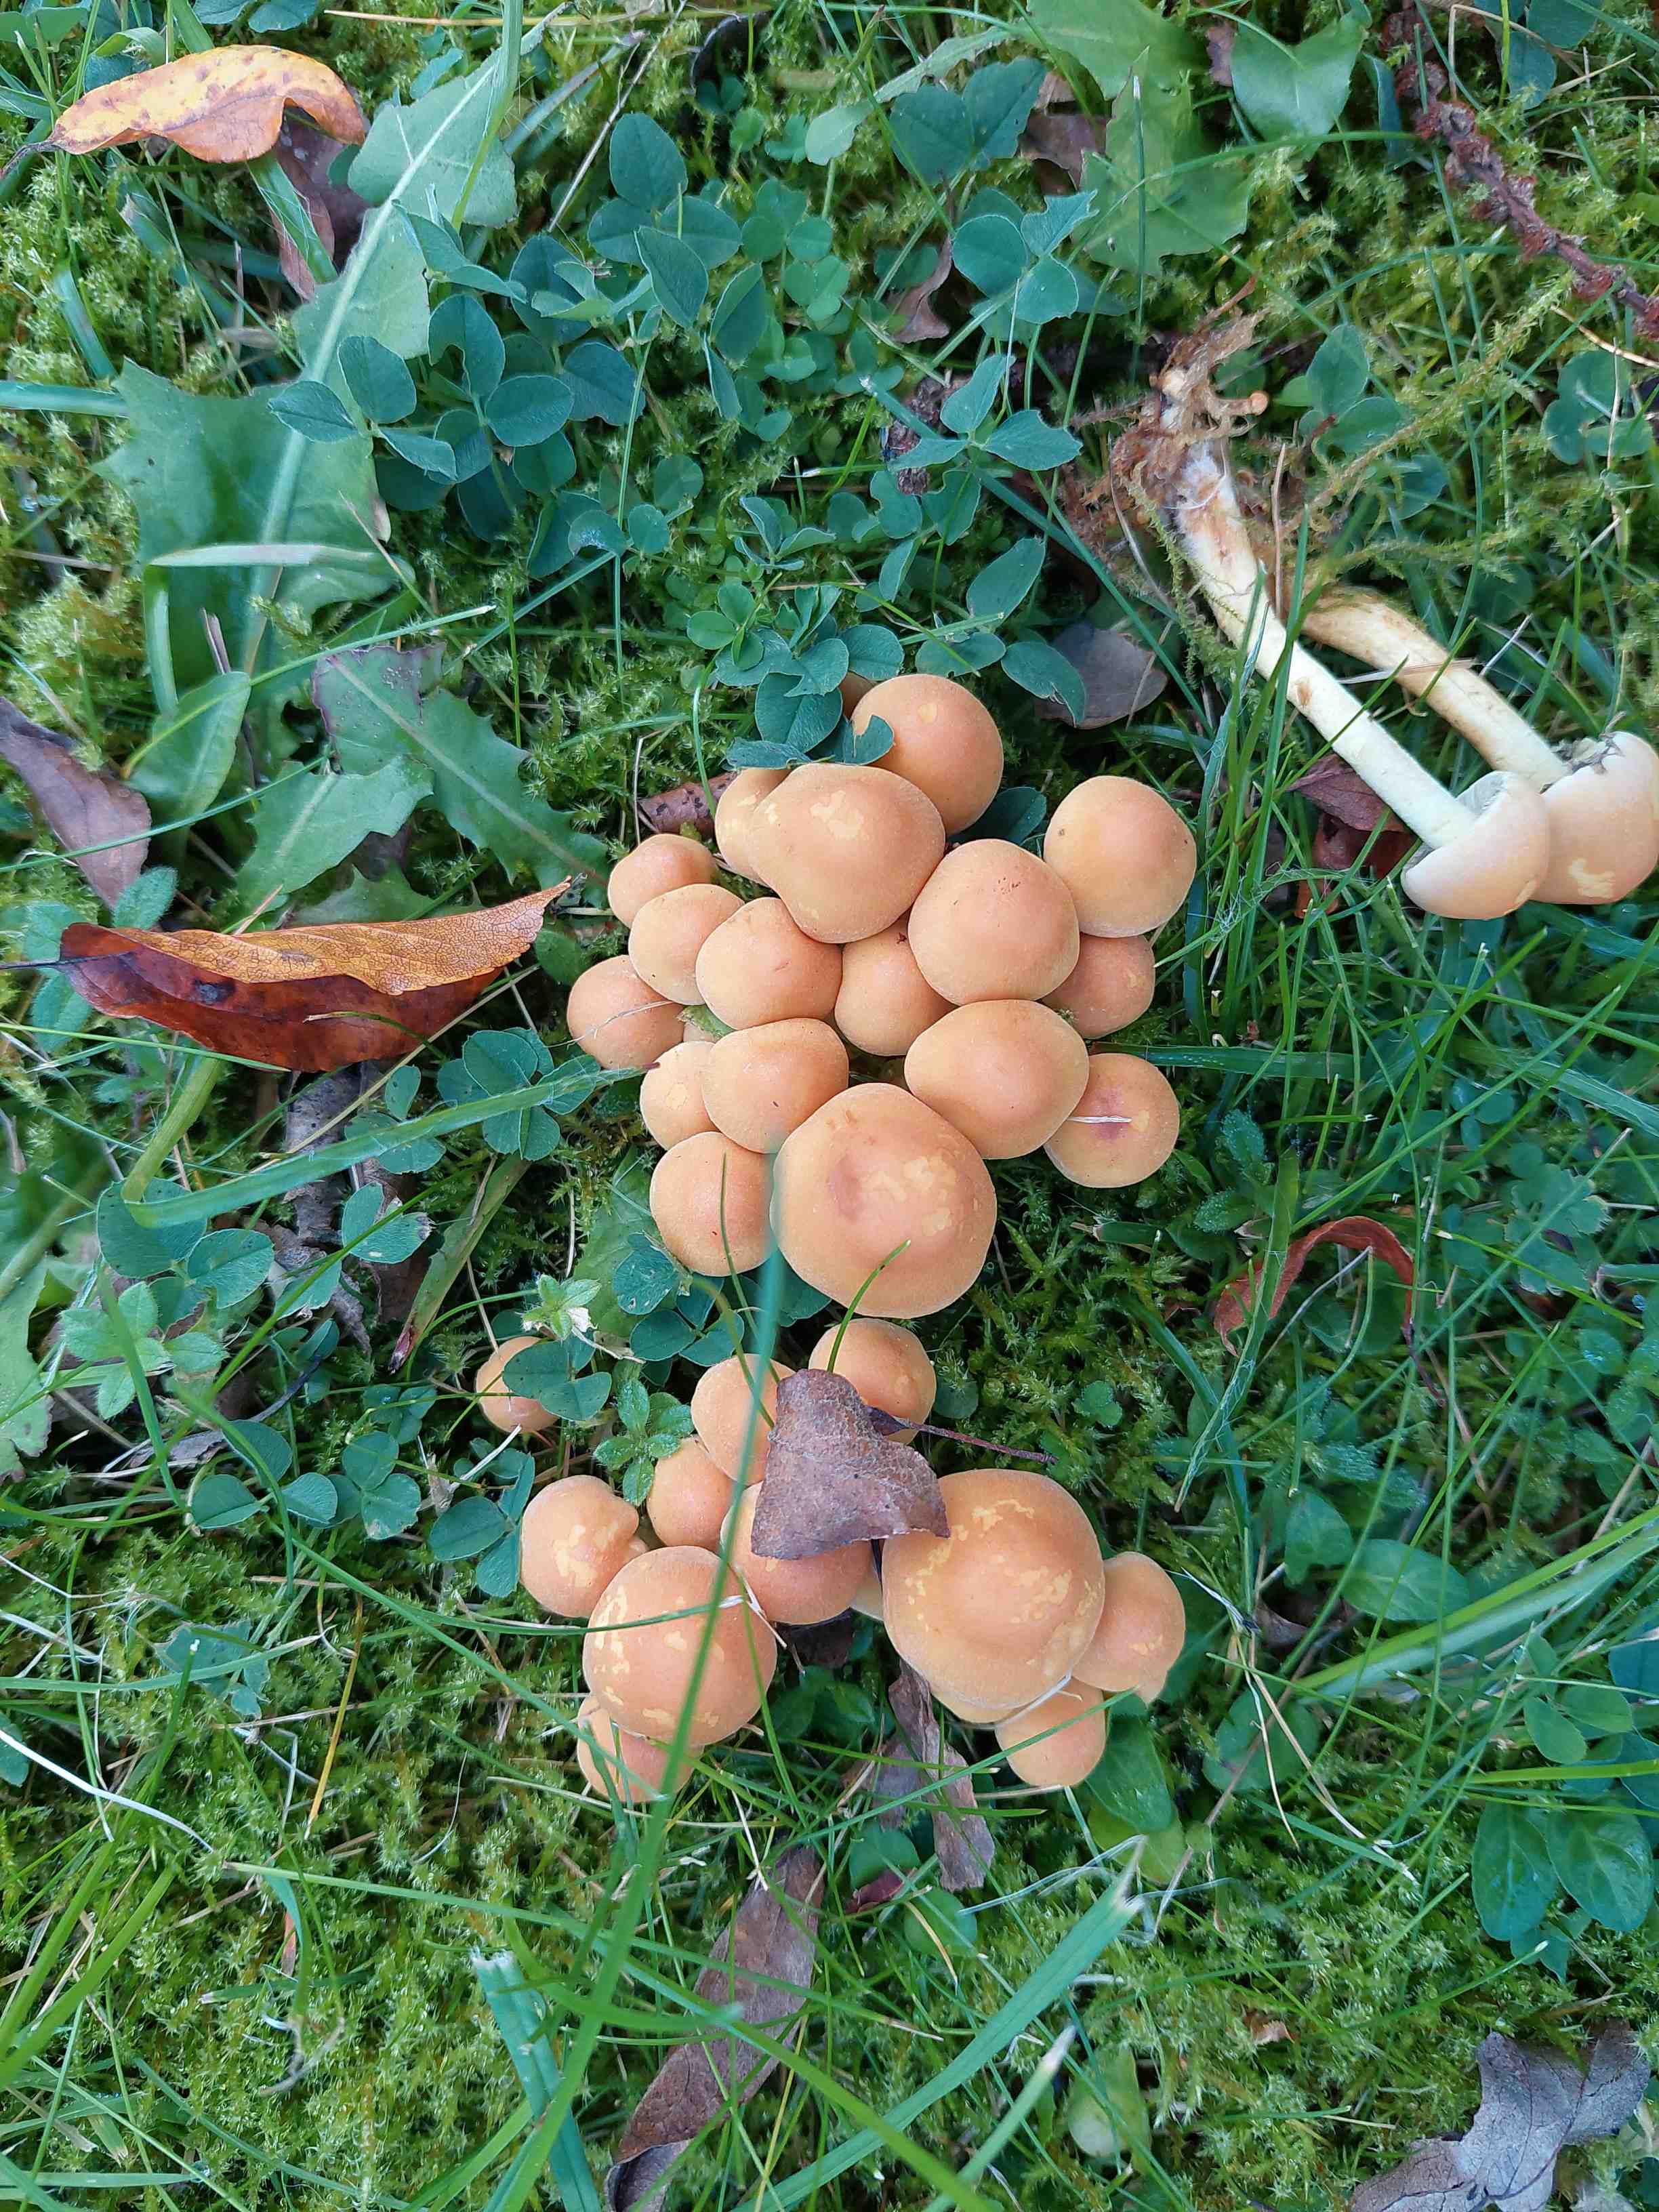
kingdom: Fungi
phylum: Basidiomycota
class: Agaricomycetes
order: Agaricales
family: Strophariaceae
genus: Hypholoma
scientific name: Hypholoma fasciculare
